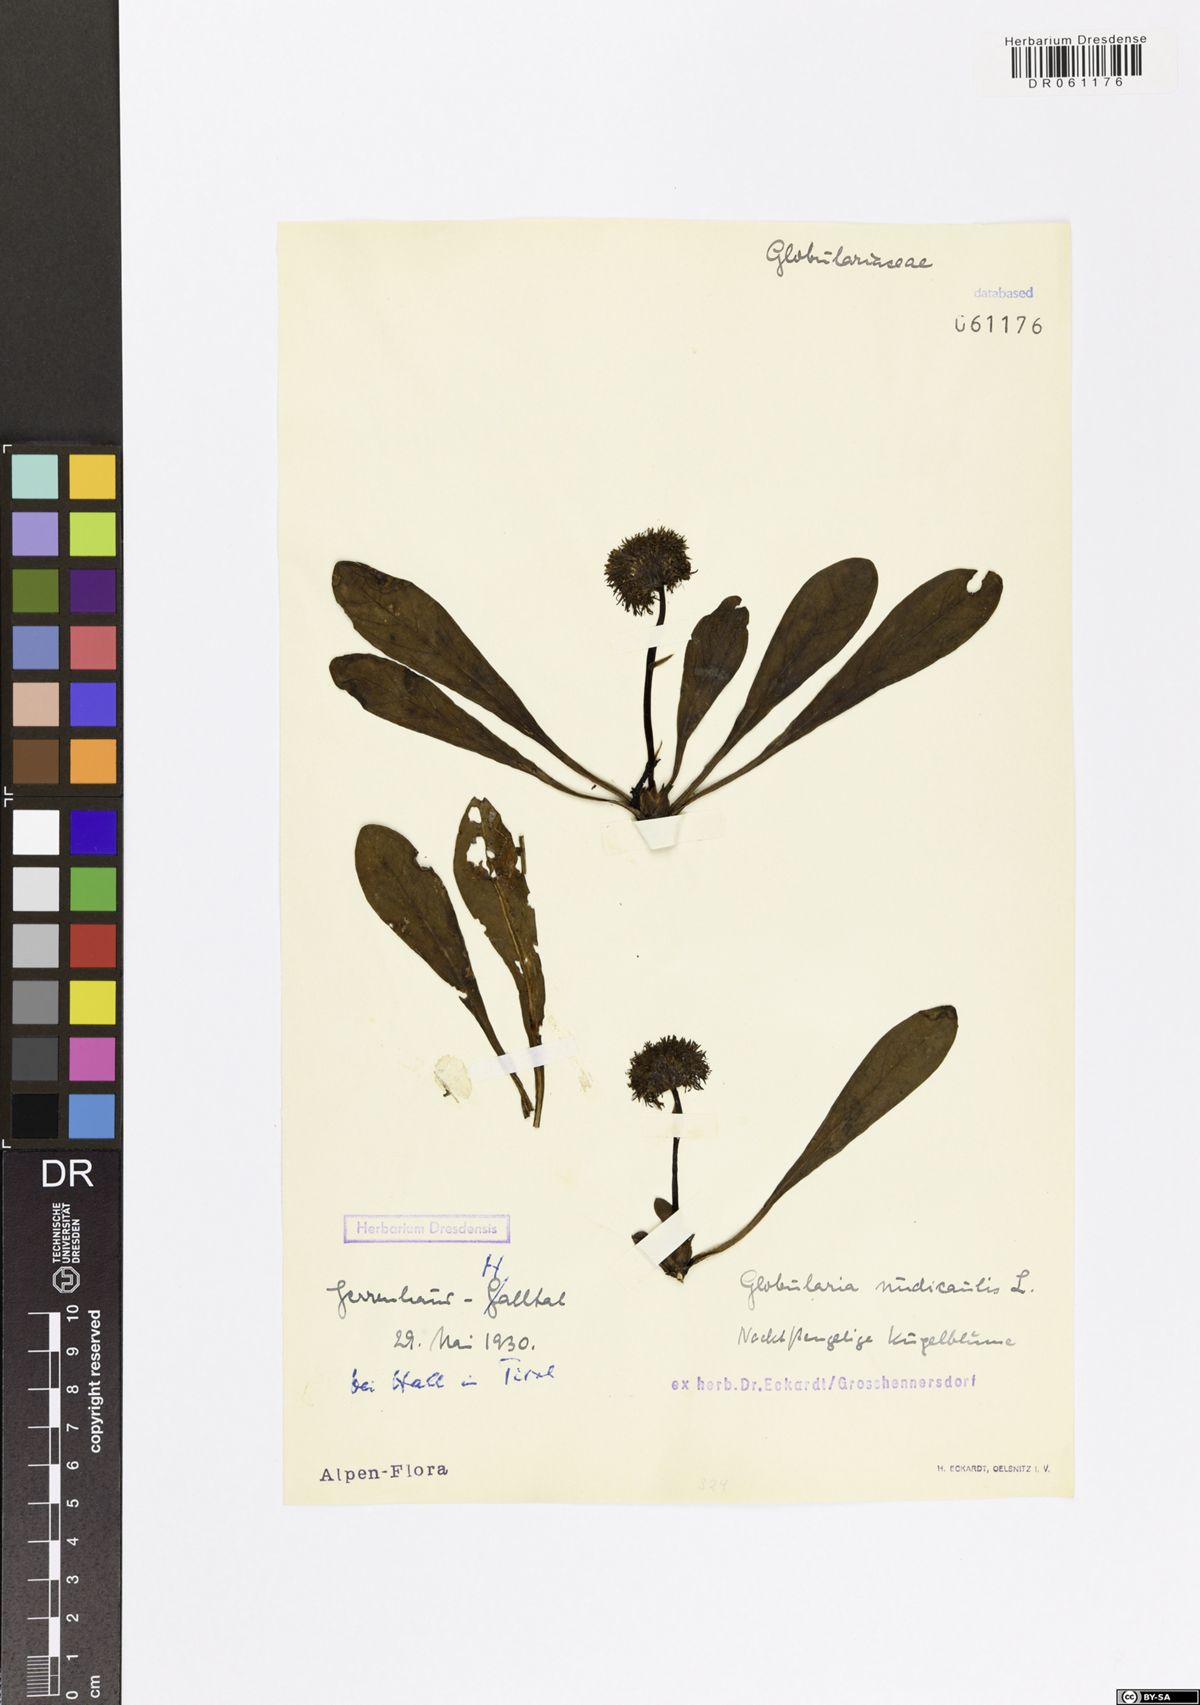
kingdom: Plantae
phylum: Tracheophyta
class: Magnoliopsida
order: Lamiales
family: Plantaginaceae
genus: Globularia
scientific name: Globularia nudicaulis
